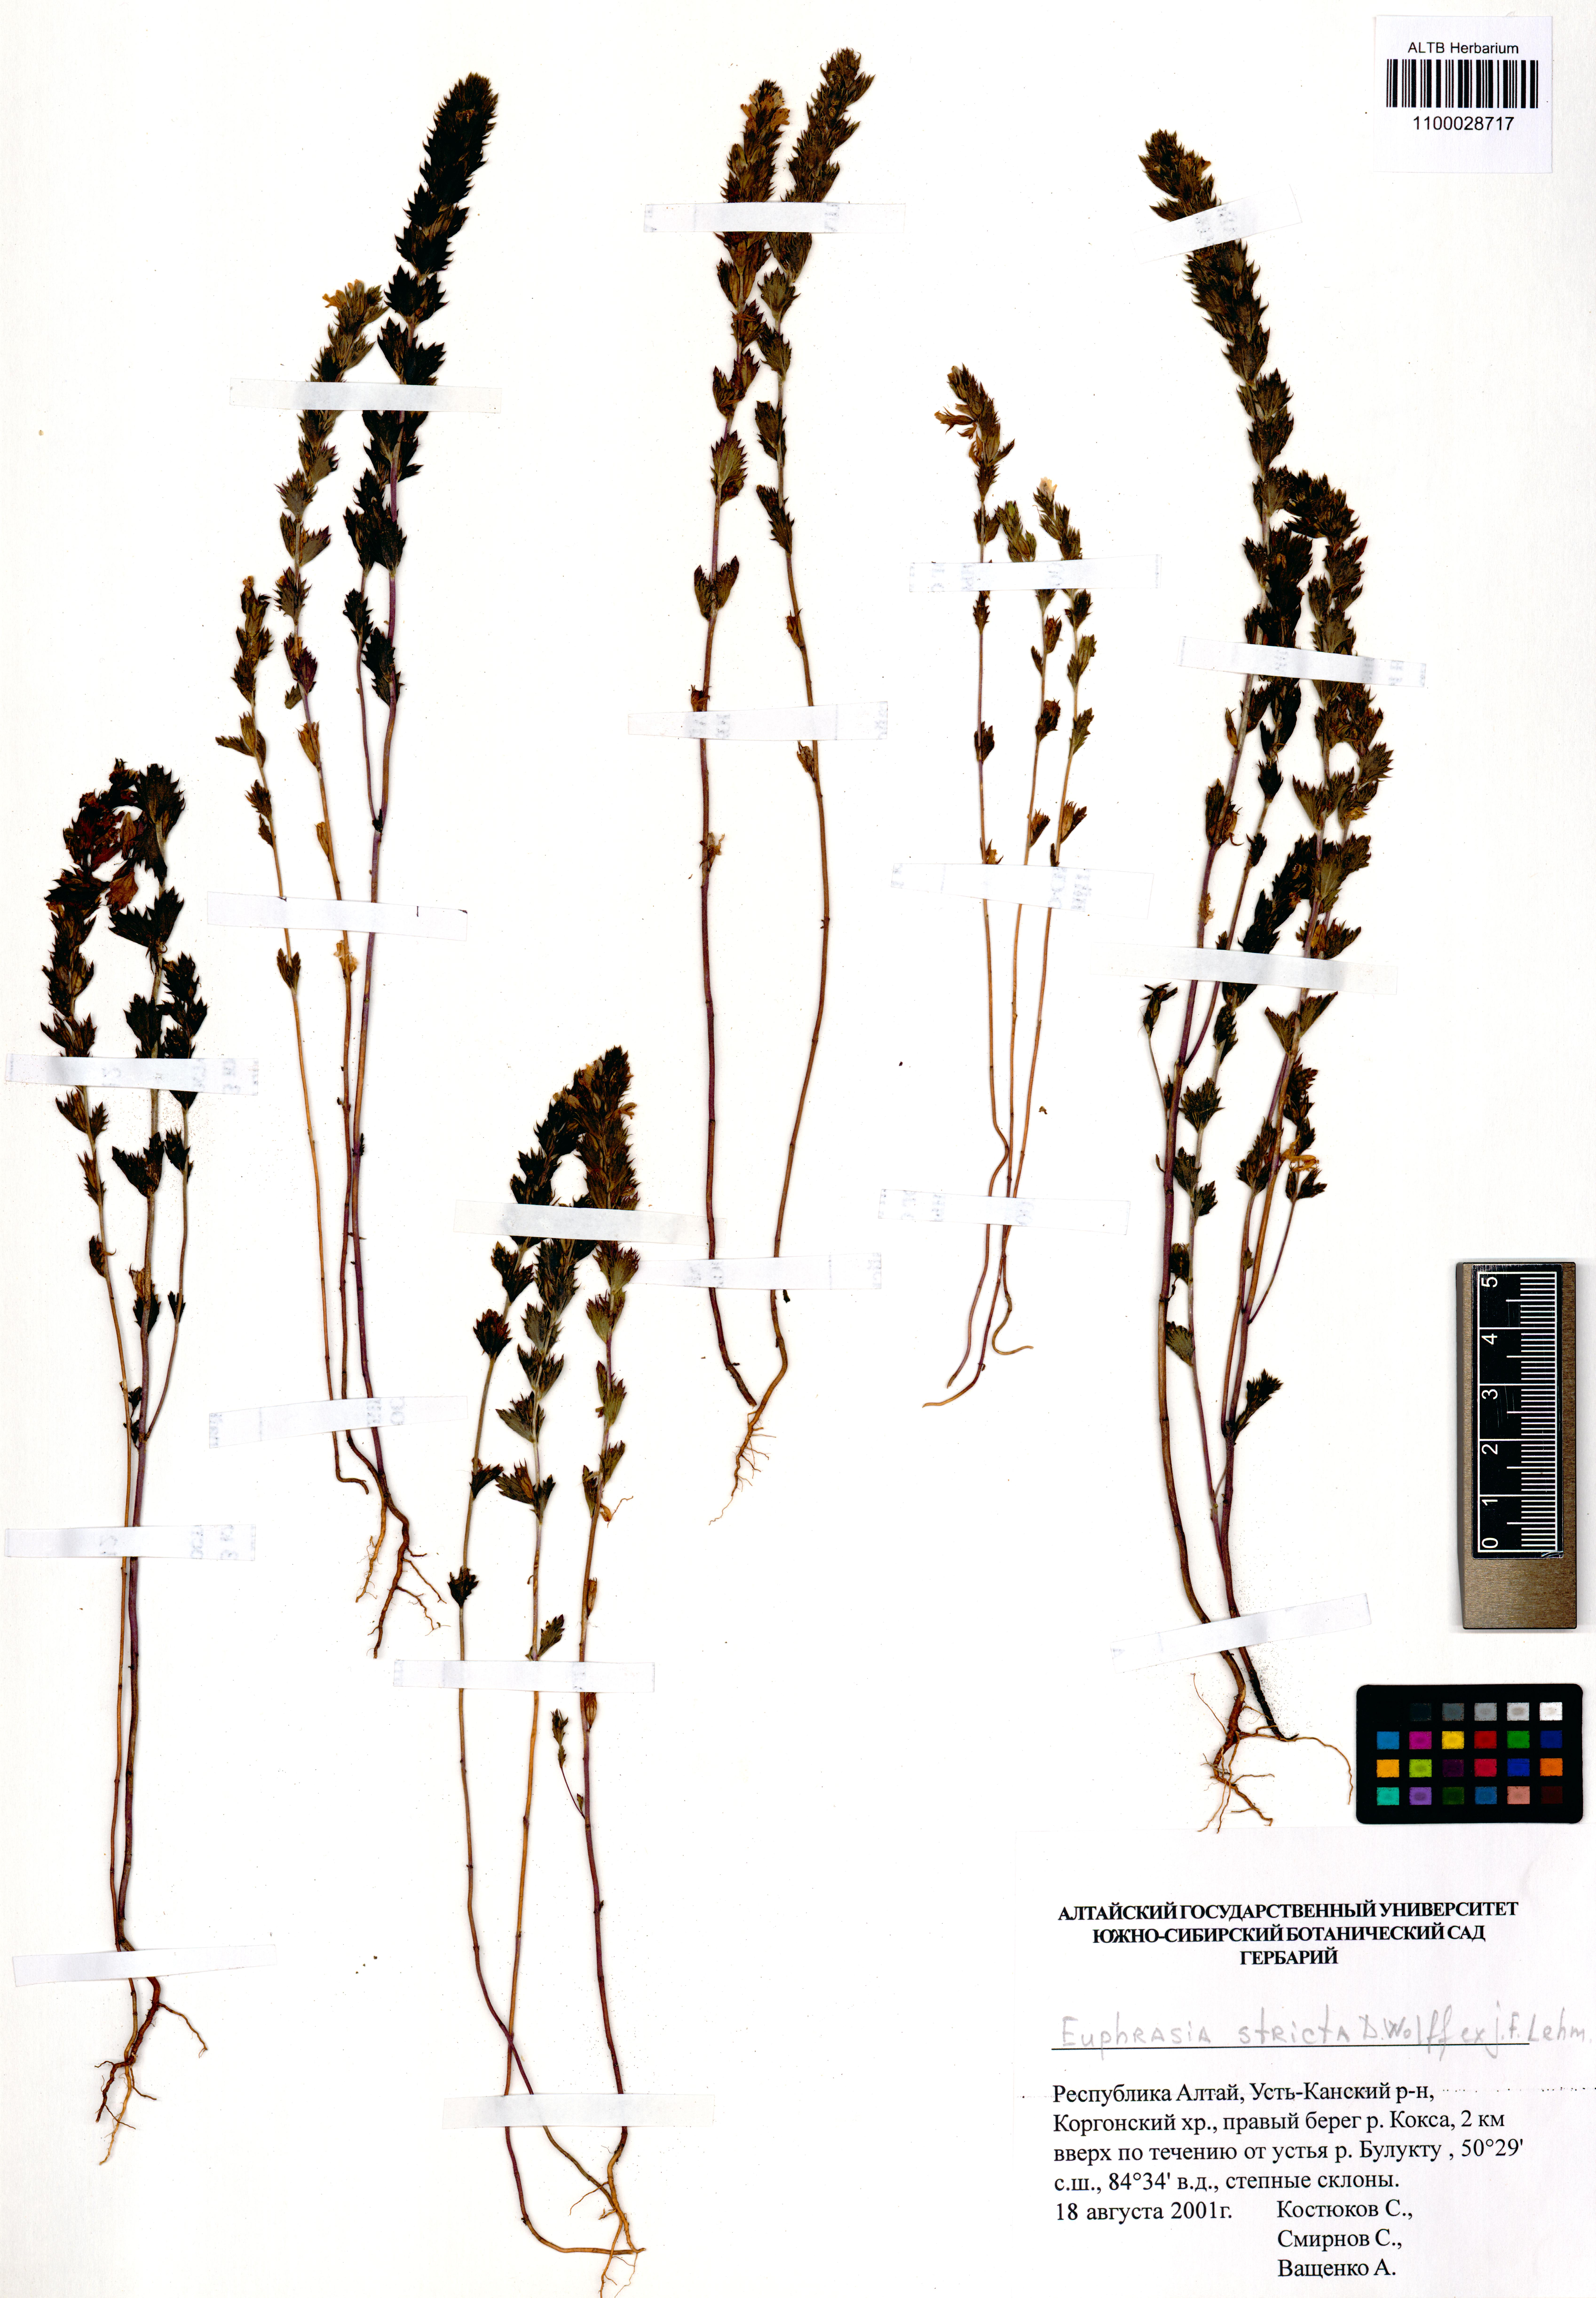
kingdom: Plantae
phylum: Tracheophyta
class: Magnoliopsida
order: Lamiales
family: Orobanchaceae
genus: Euphrasia
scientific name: Euphrasia stricta
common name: Drug eyebright
